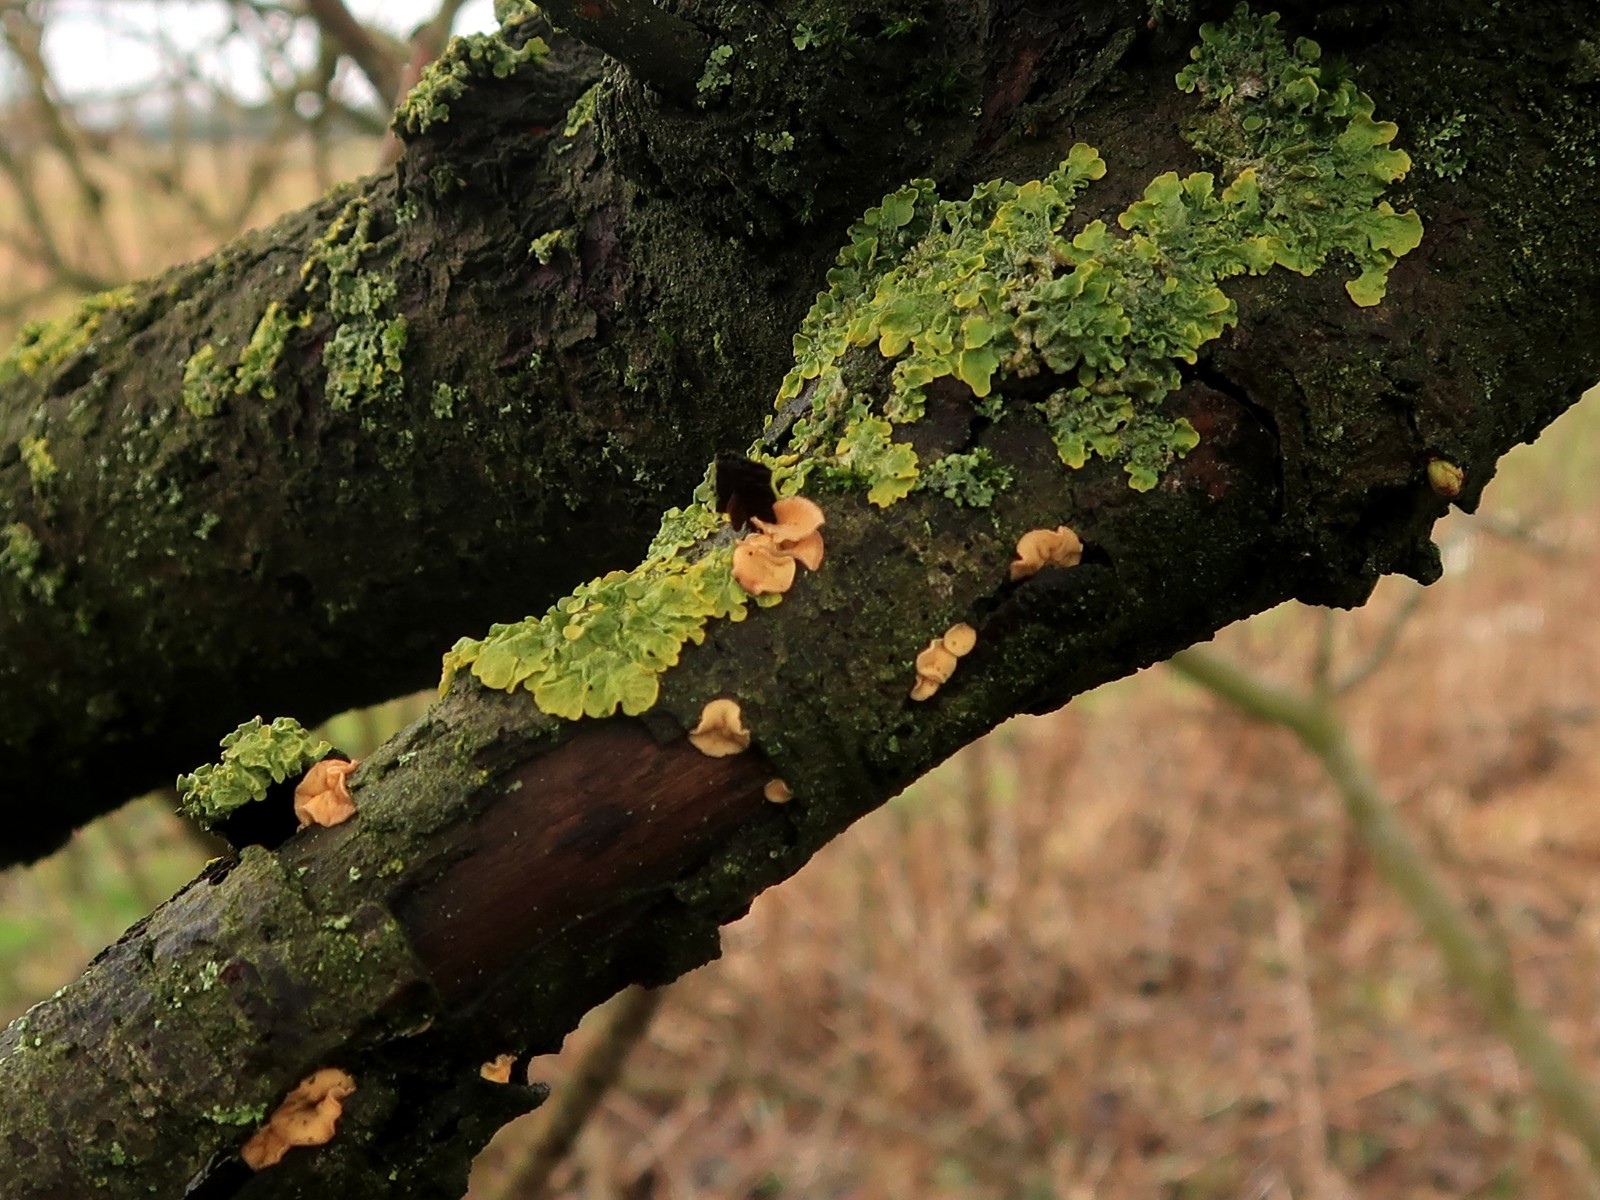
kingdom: Fungi
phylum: Ascomycota
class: Leotiomycetes
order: Helotiales
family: Helotiaceae
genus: Hymenoscyphus
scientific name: Hymenoscyphus
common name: stilkskive
